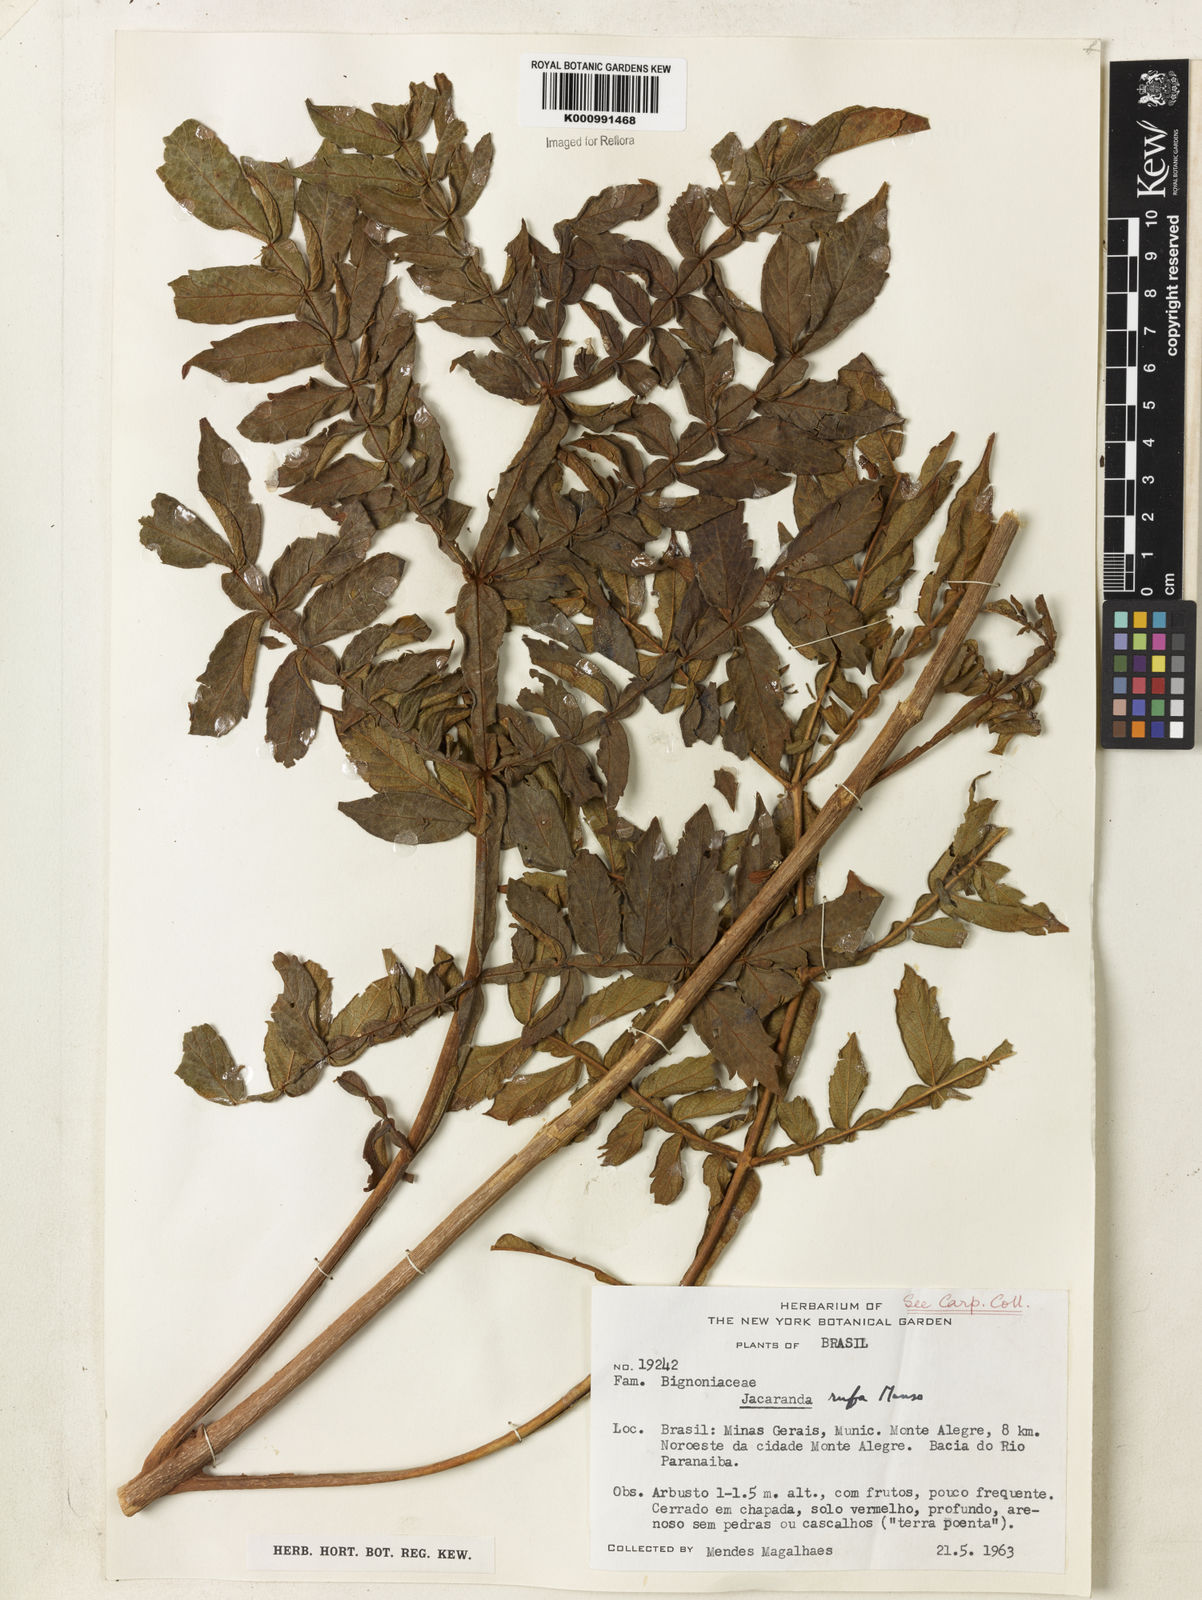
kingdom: Plantae
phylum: Tracheophyta
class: Magnoliopsida
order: Lamiales
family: Bignoniaceae
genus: Jacaranda
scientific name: Jacaranda rufa
